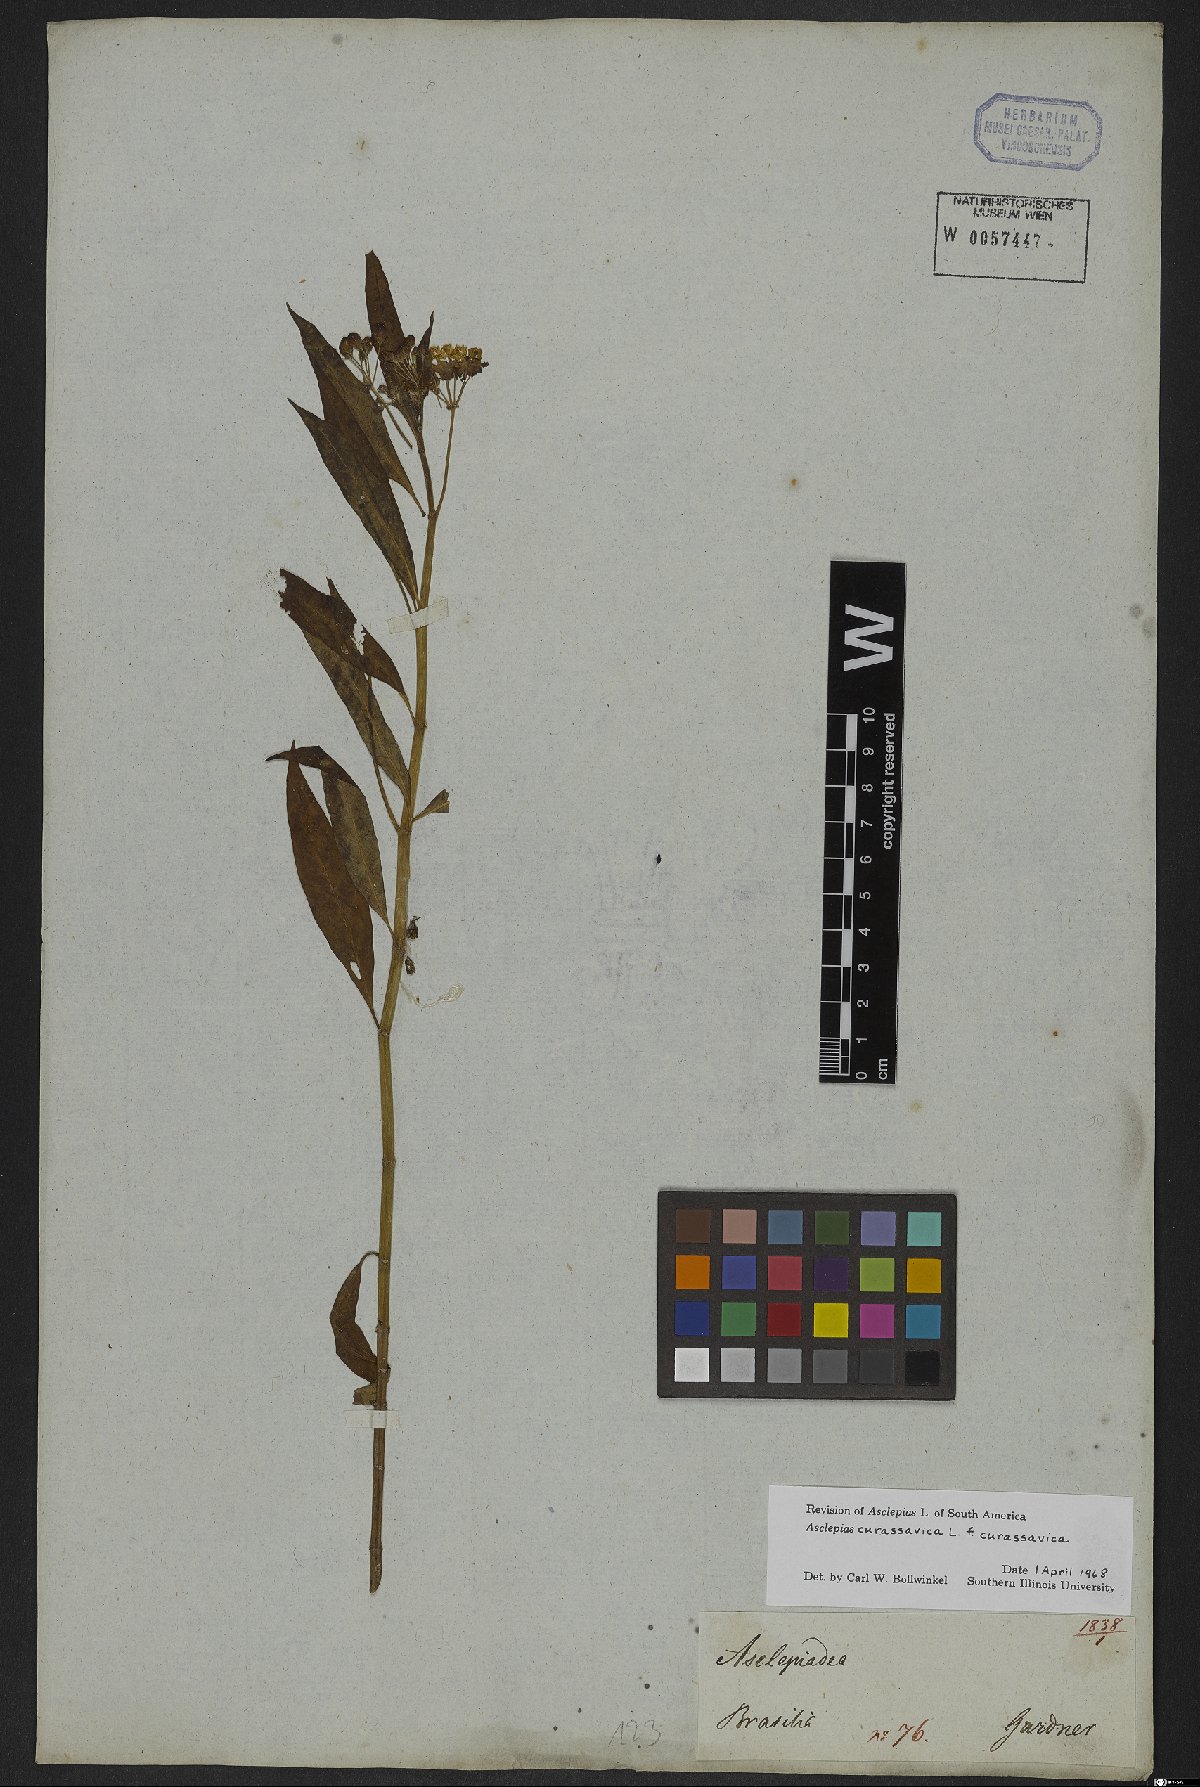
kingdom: Plantae
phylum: Tracheophyta
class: Magnoliopsida
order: Gentianales
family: Apocynaceae
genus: Asclepias
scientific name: Asclepias curassavica
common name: Bloodflower
